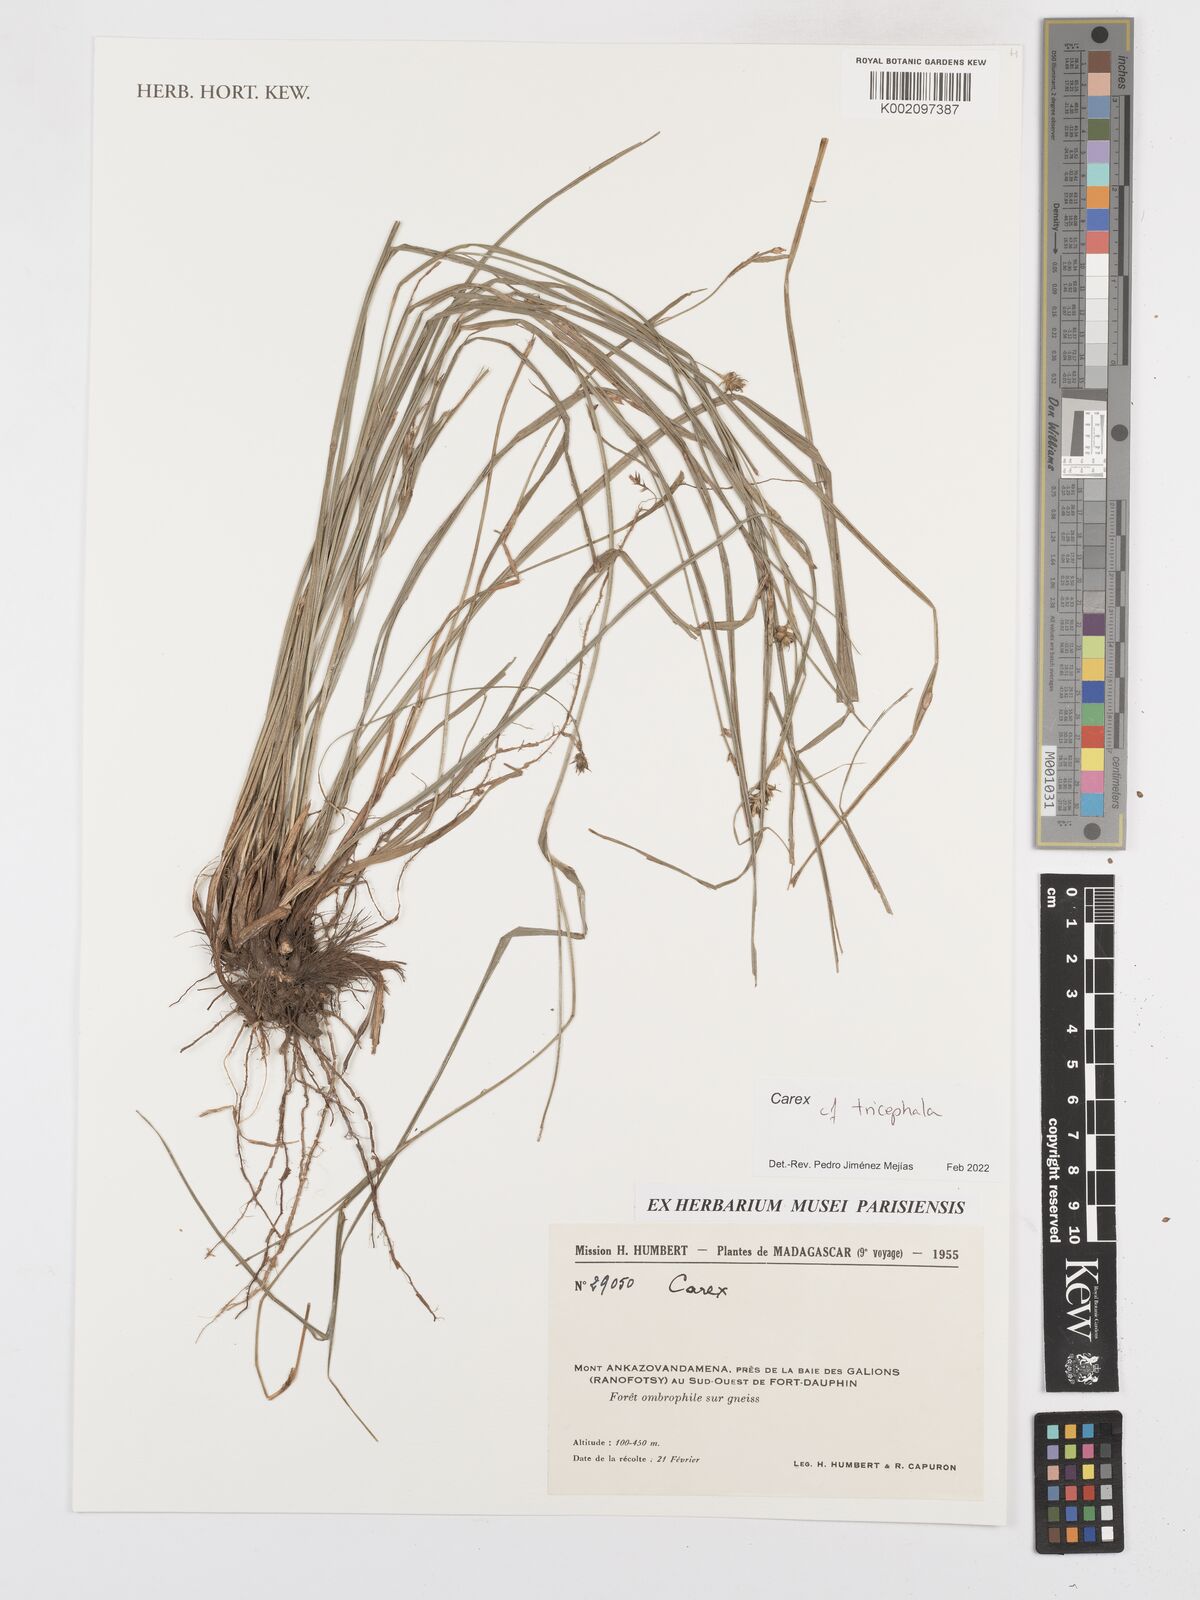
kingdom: Plantae
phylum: Tracheophyta
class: Liliopsida
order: Poales
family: Cyperaceae
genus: Carex
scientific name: Carex tricephala
